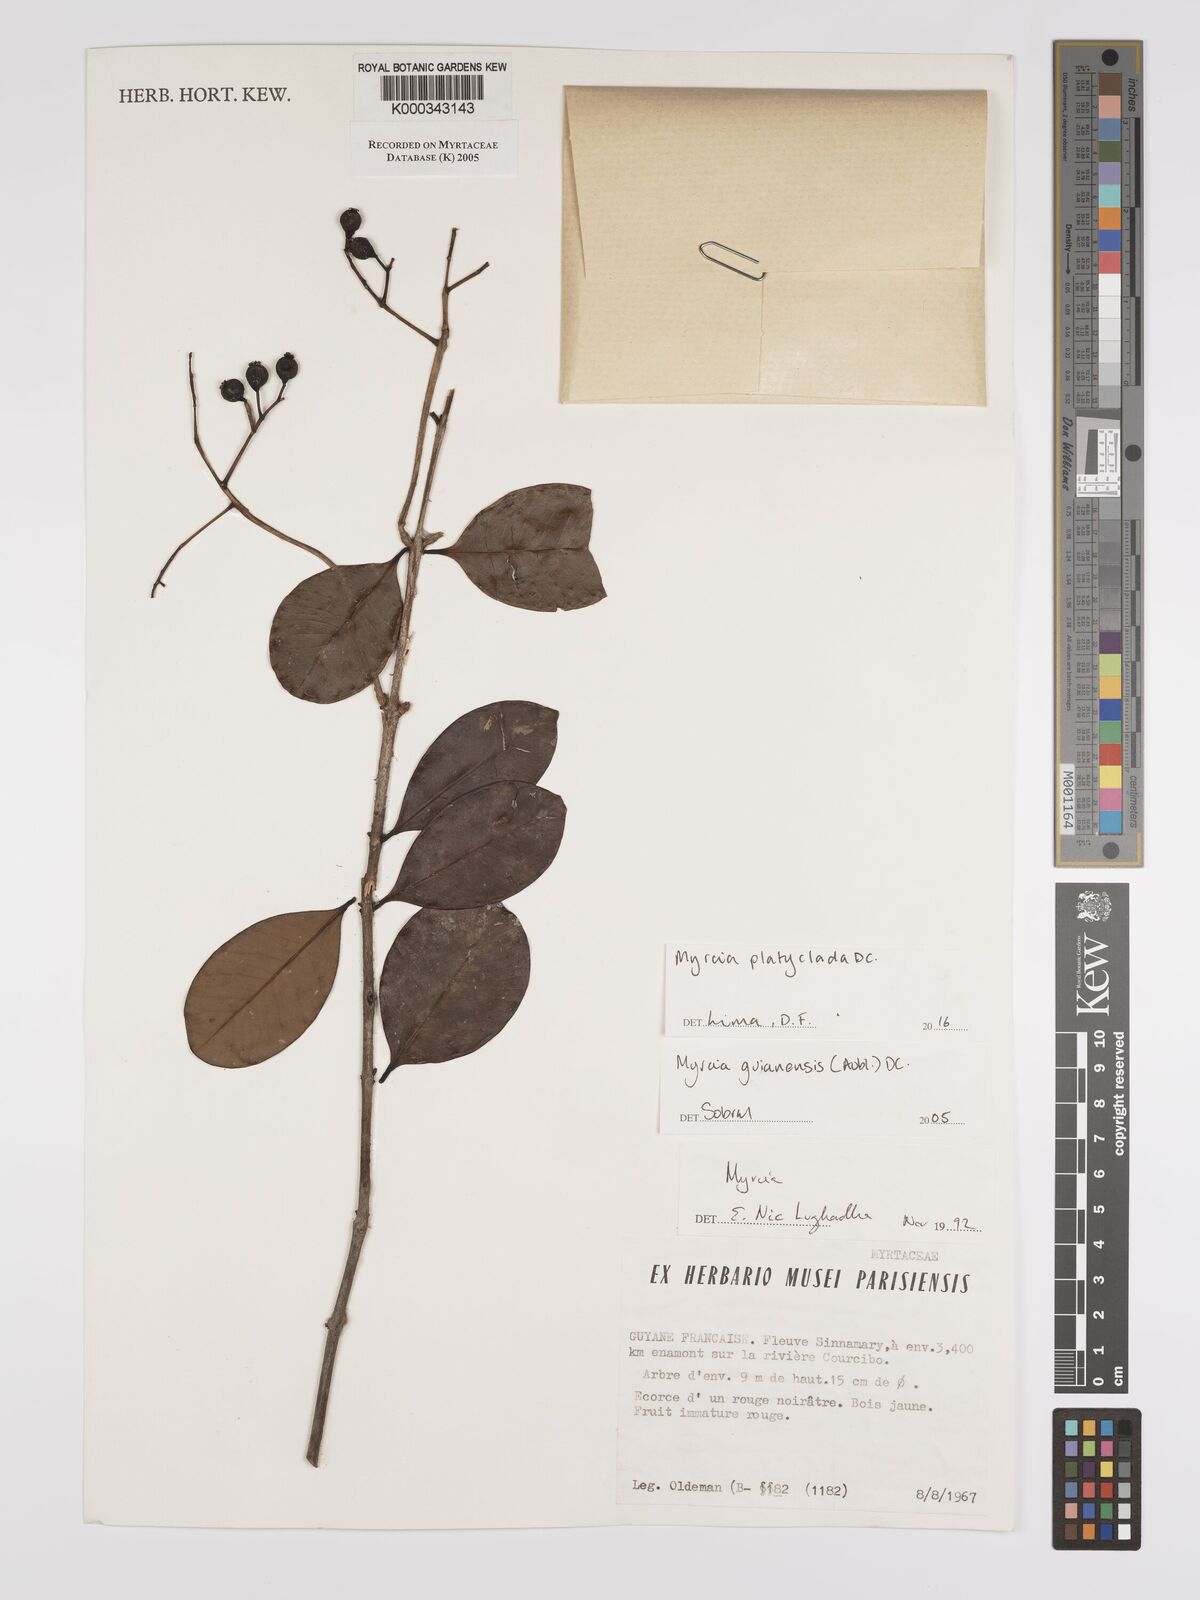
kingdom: Plantae
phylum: Tracheophyta
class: Magnoliopsida
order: Myrtales
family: Myrtaceae
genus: Myrcia
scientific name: Myrcia guianensis
